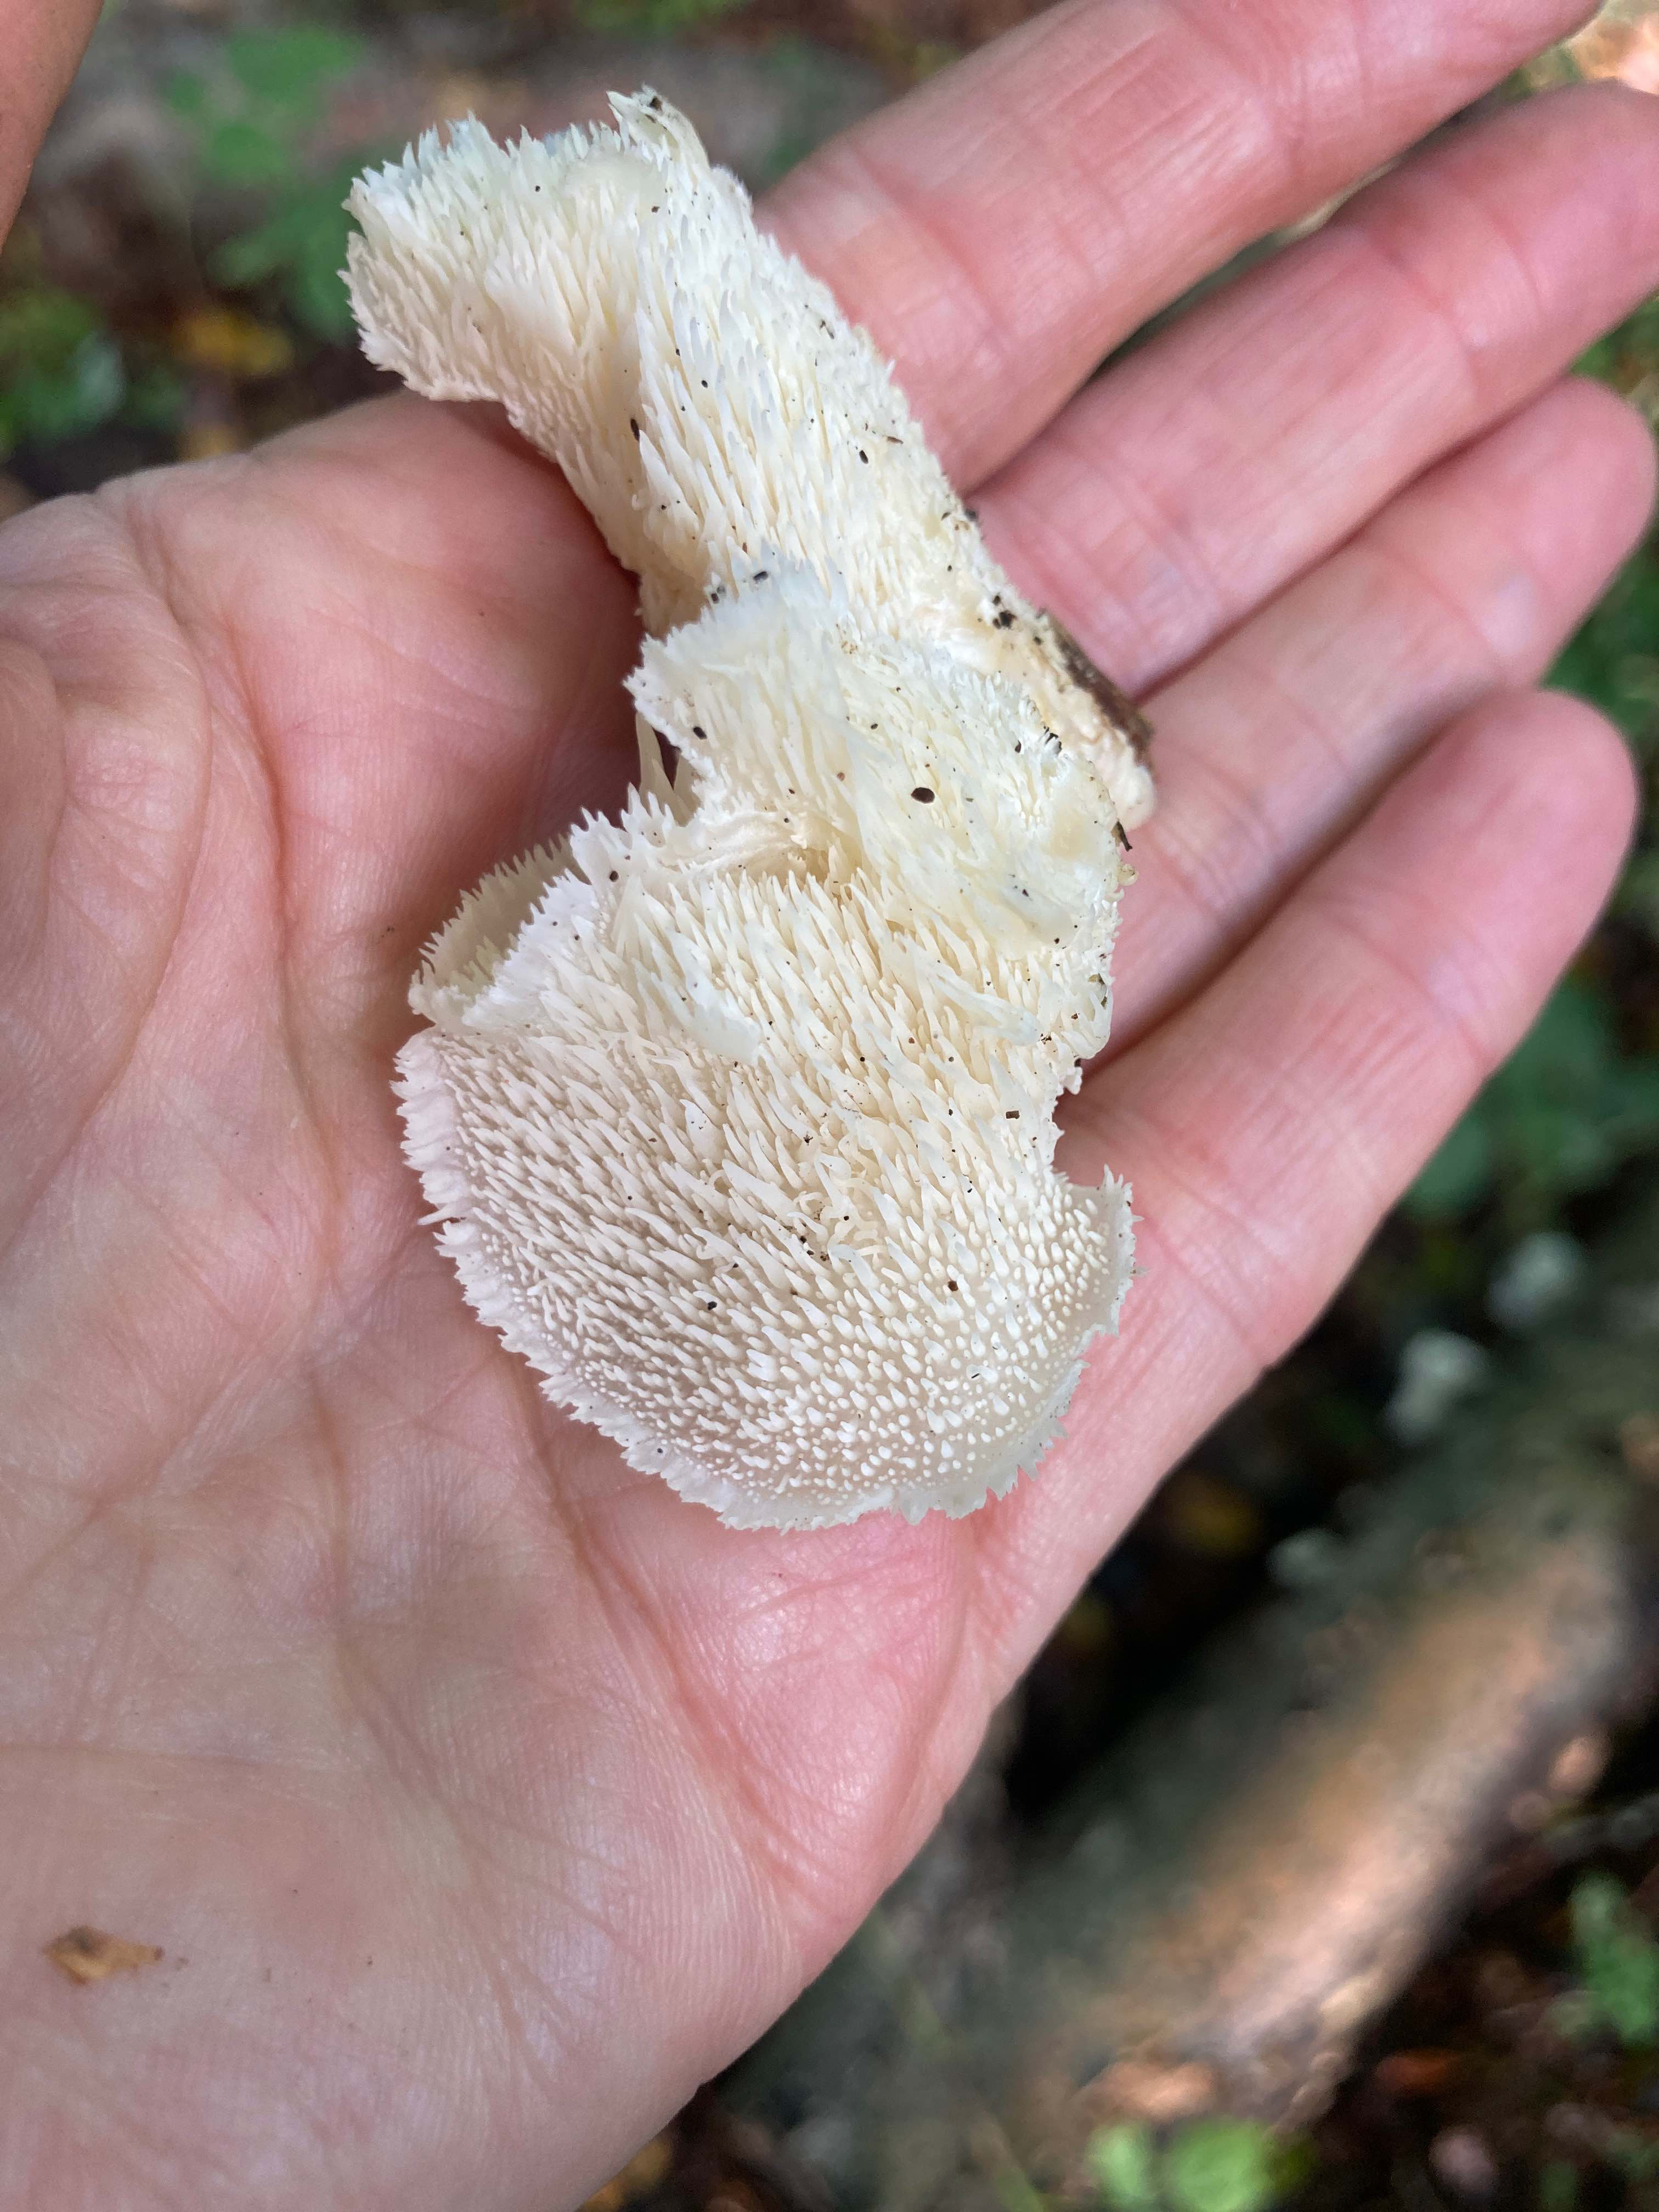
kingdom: Fungi
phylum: Basidiomycota
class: Agaricomycetes
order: Russulales
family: Hericiaceae
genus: Hericium
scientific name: Hericium cirrhatum
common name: børstepigsvamp
